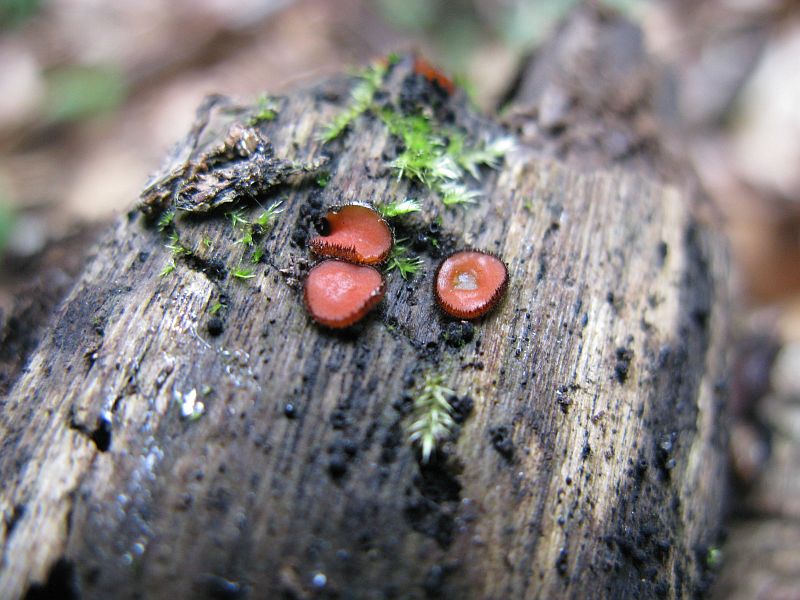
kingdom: Fungi
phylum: Ascomycota
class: Pezizomycetes
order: Pezizales
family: Pyronemataceae
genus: Scutellinia
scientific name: Scutellinia scutellata
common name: frynset skjoldbæger
